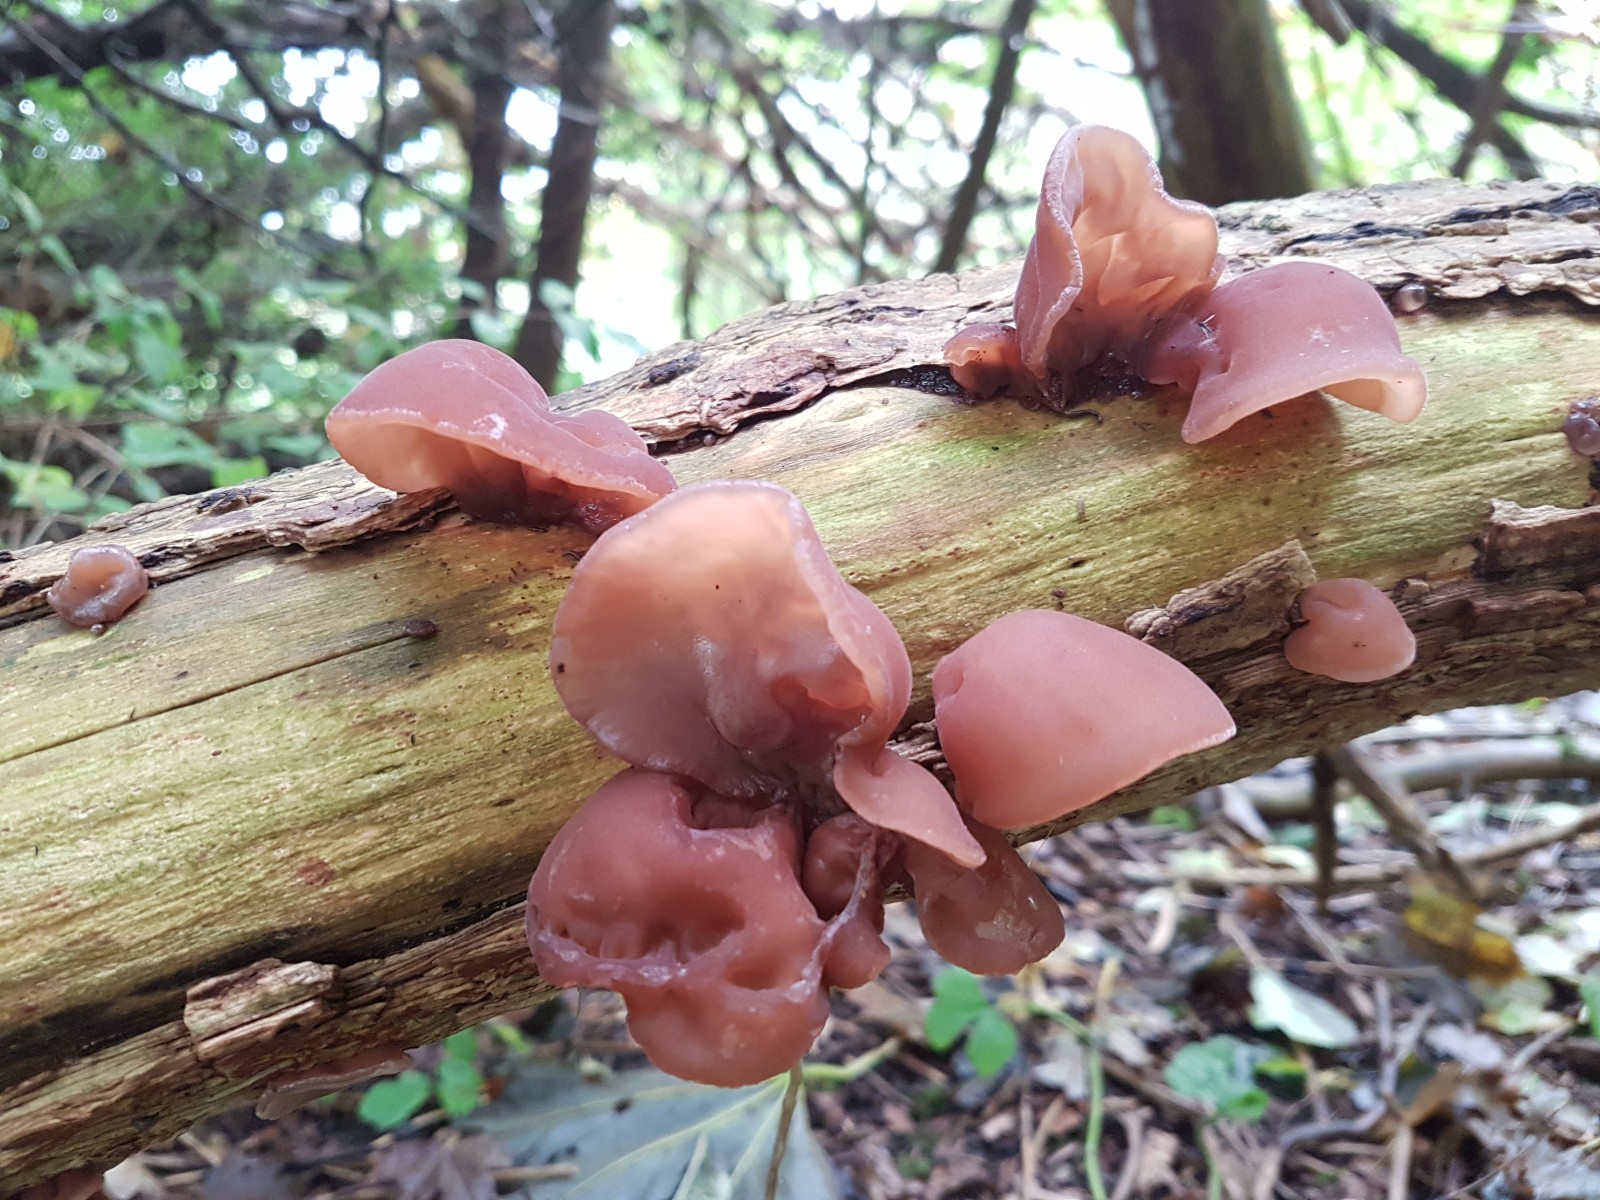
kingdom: Fungi
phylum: Basidiomycota
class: Agaricomycetes
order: Auriculariales
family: Auriculariaceae
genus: Auricularia
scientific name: Auricularia auricula-judae
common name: almindelig judasøre
